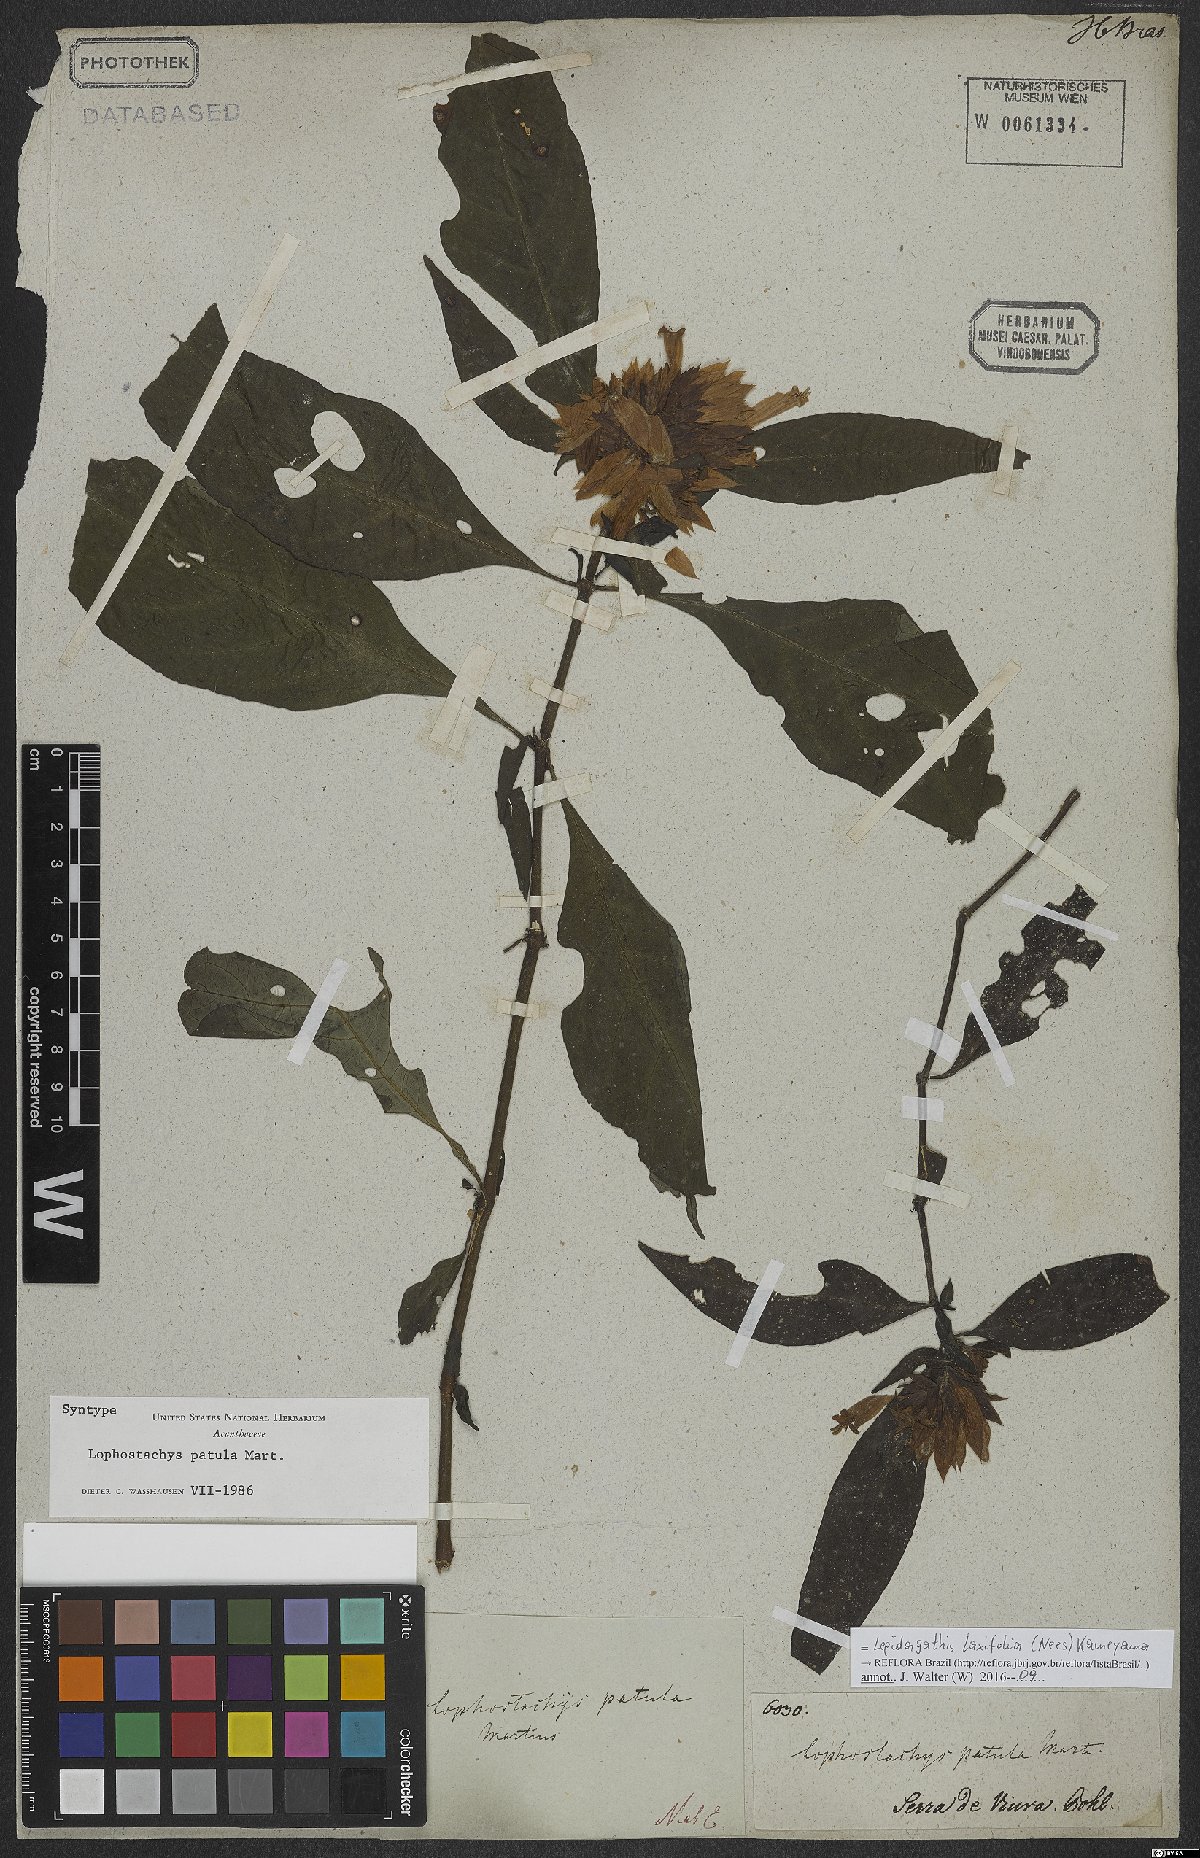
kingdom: Plantae
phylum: Tracheophyta
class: Magnoliopsida
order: Lamiales
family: Acanthaceae
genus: Lepidagathis
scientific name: Lepidagathis laxifolia
